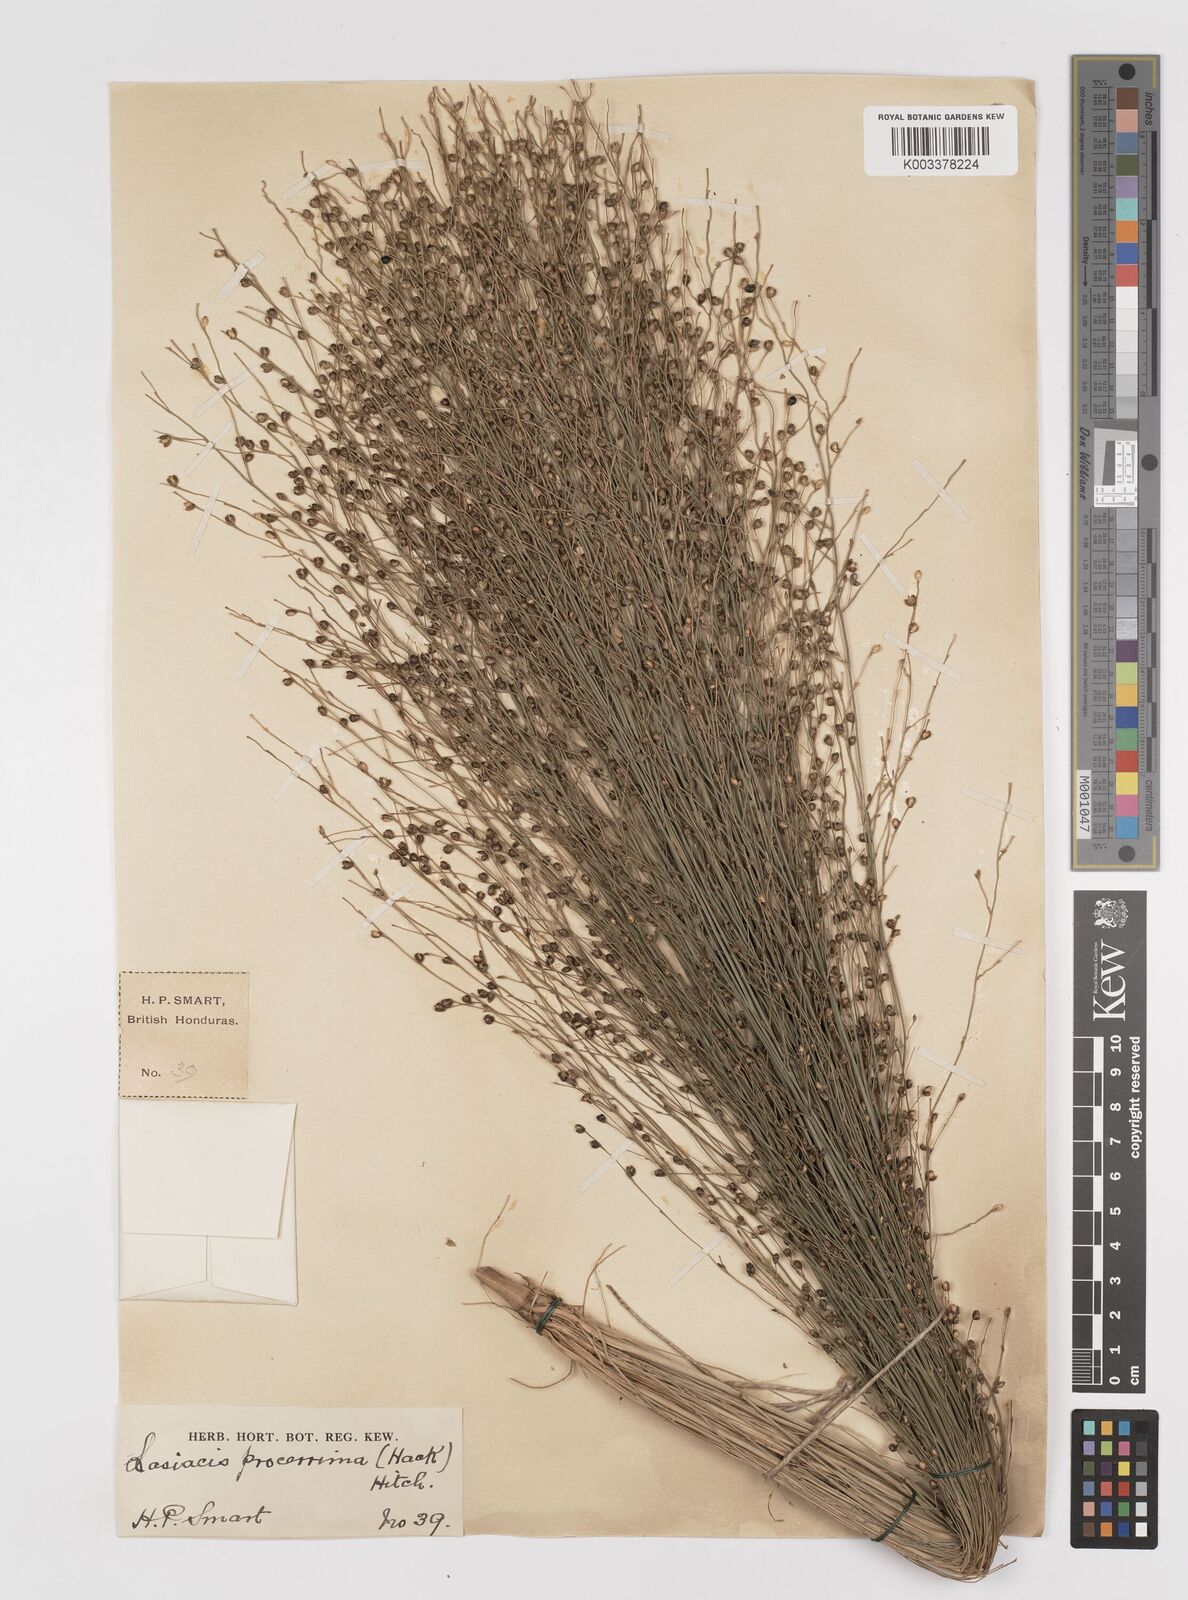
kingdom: Plantae
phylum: Tracheophyta
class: Liliopsida
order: Poales
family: Poaceae
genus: Lasiacis
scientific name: Lasiacis procerrima
